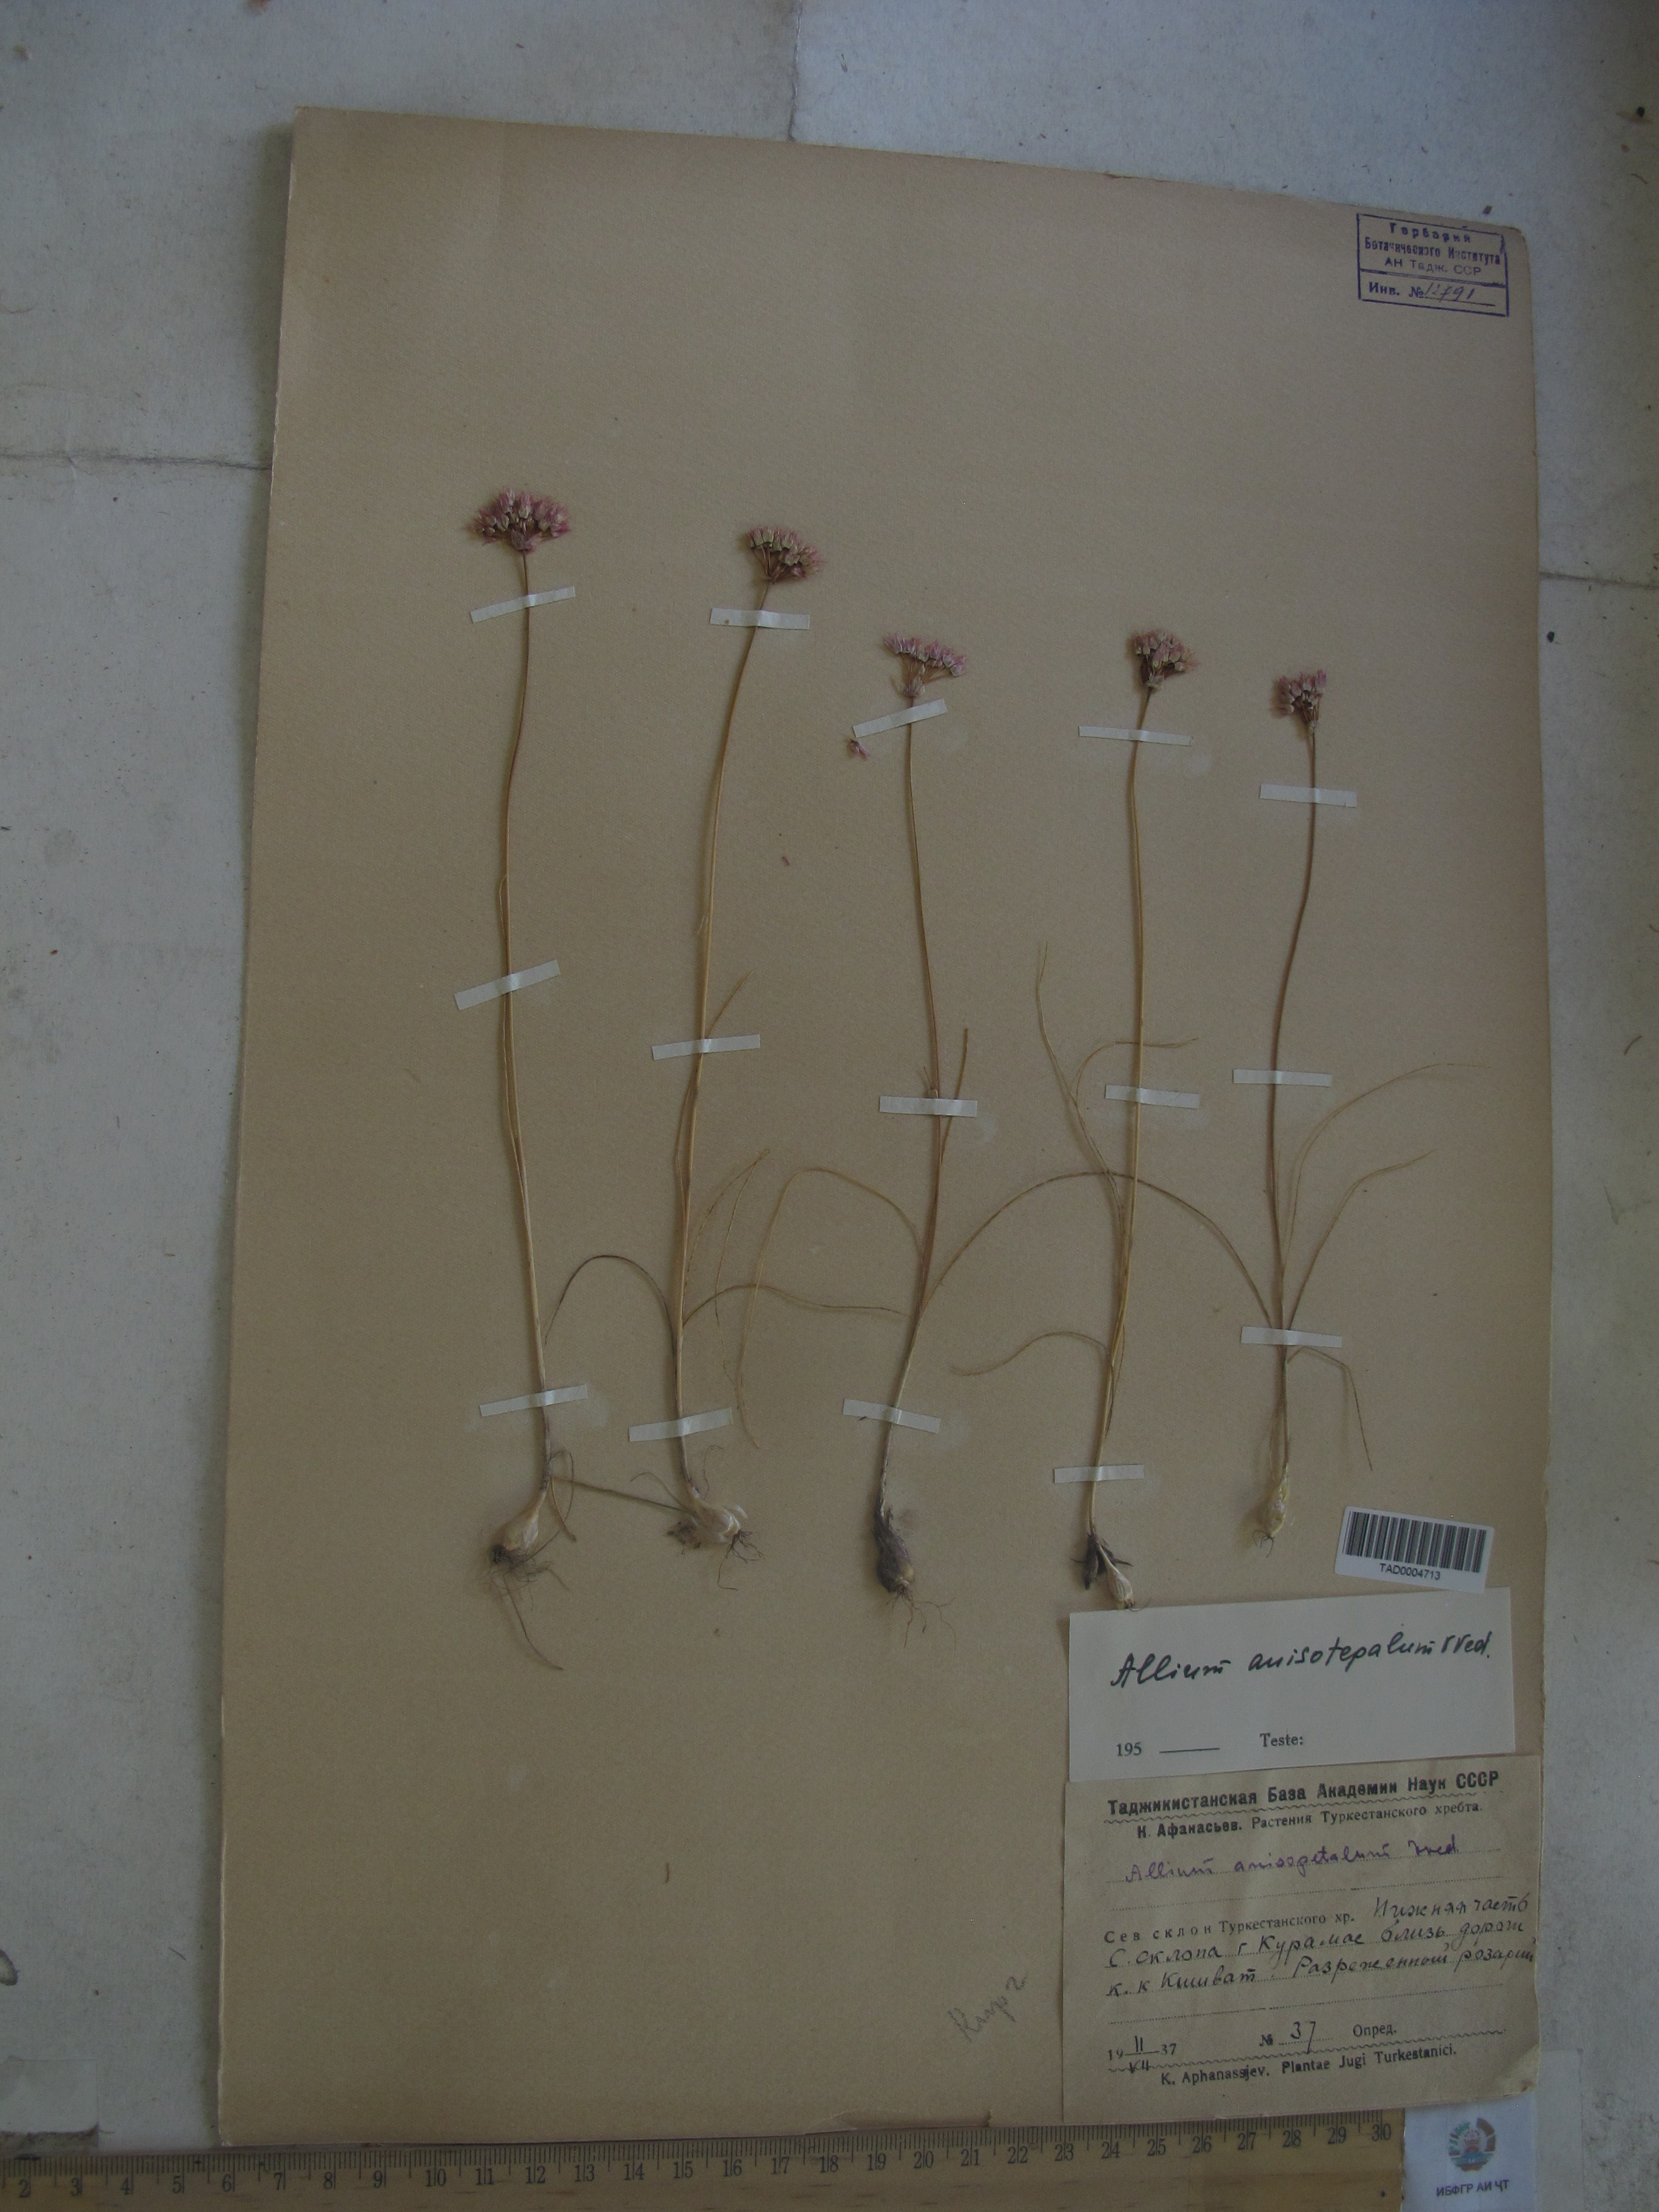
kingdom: Plantae
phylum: Tracheophyta
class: Liliopsida
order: Asparagales
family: Amaryllidaceae
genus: Allium
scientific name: Allium anisotepalum
